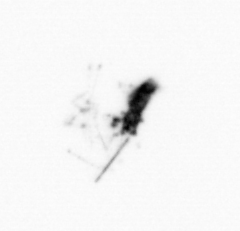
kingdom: Animalia
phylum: Arthropoda
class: Copepoda
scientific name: Copepoda
